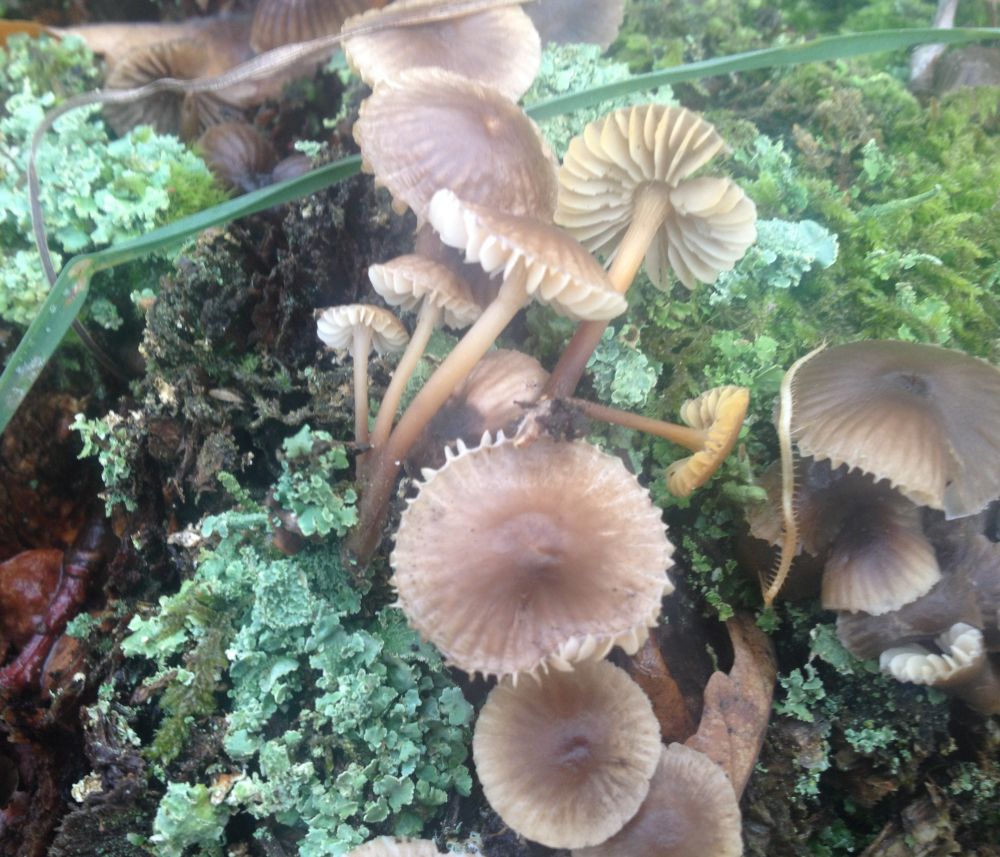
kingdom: Fungi
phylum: Basidiomycota
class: Agaricomycetes
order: Agaricales
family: Mycenaceae
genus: Mycena
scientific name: Mycena tintinnabulum
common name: vinter-huesvamp
